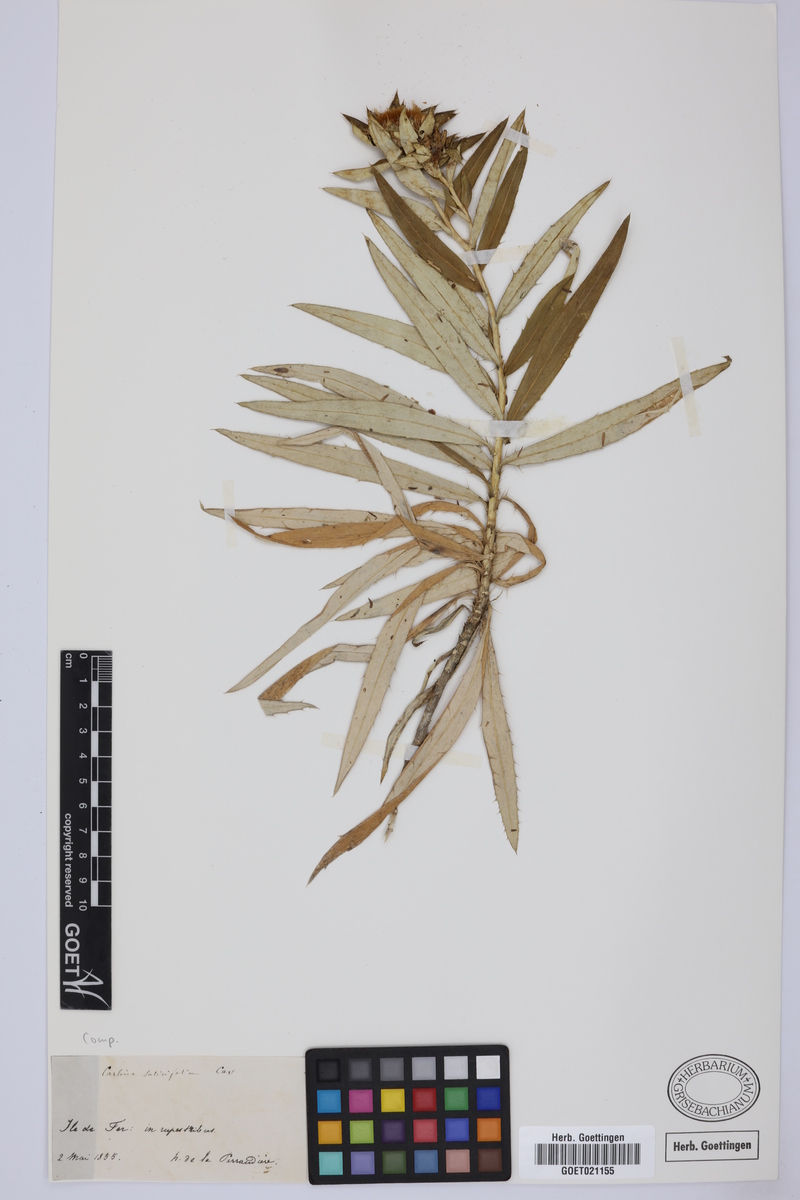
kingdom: Plantae
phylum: Tracheophyta
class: Magnoliopsida
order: Asterales
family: Asteraceae
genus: Carlina
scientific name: Carlina salicifolia
